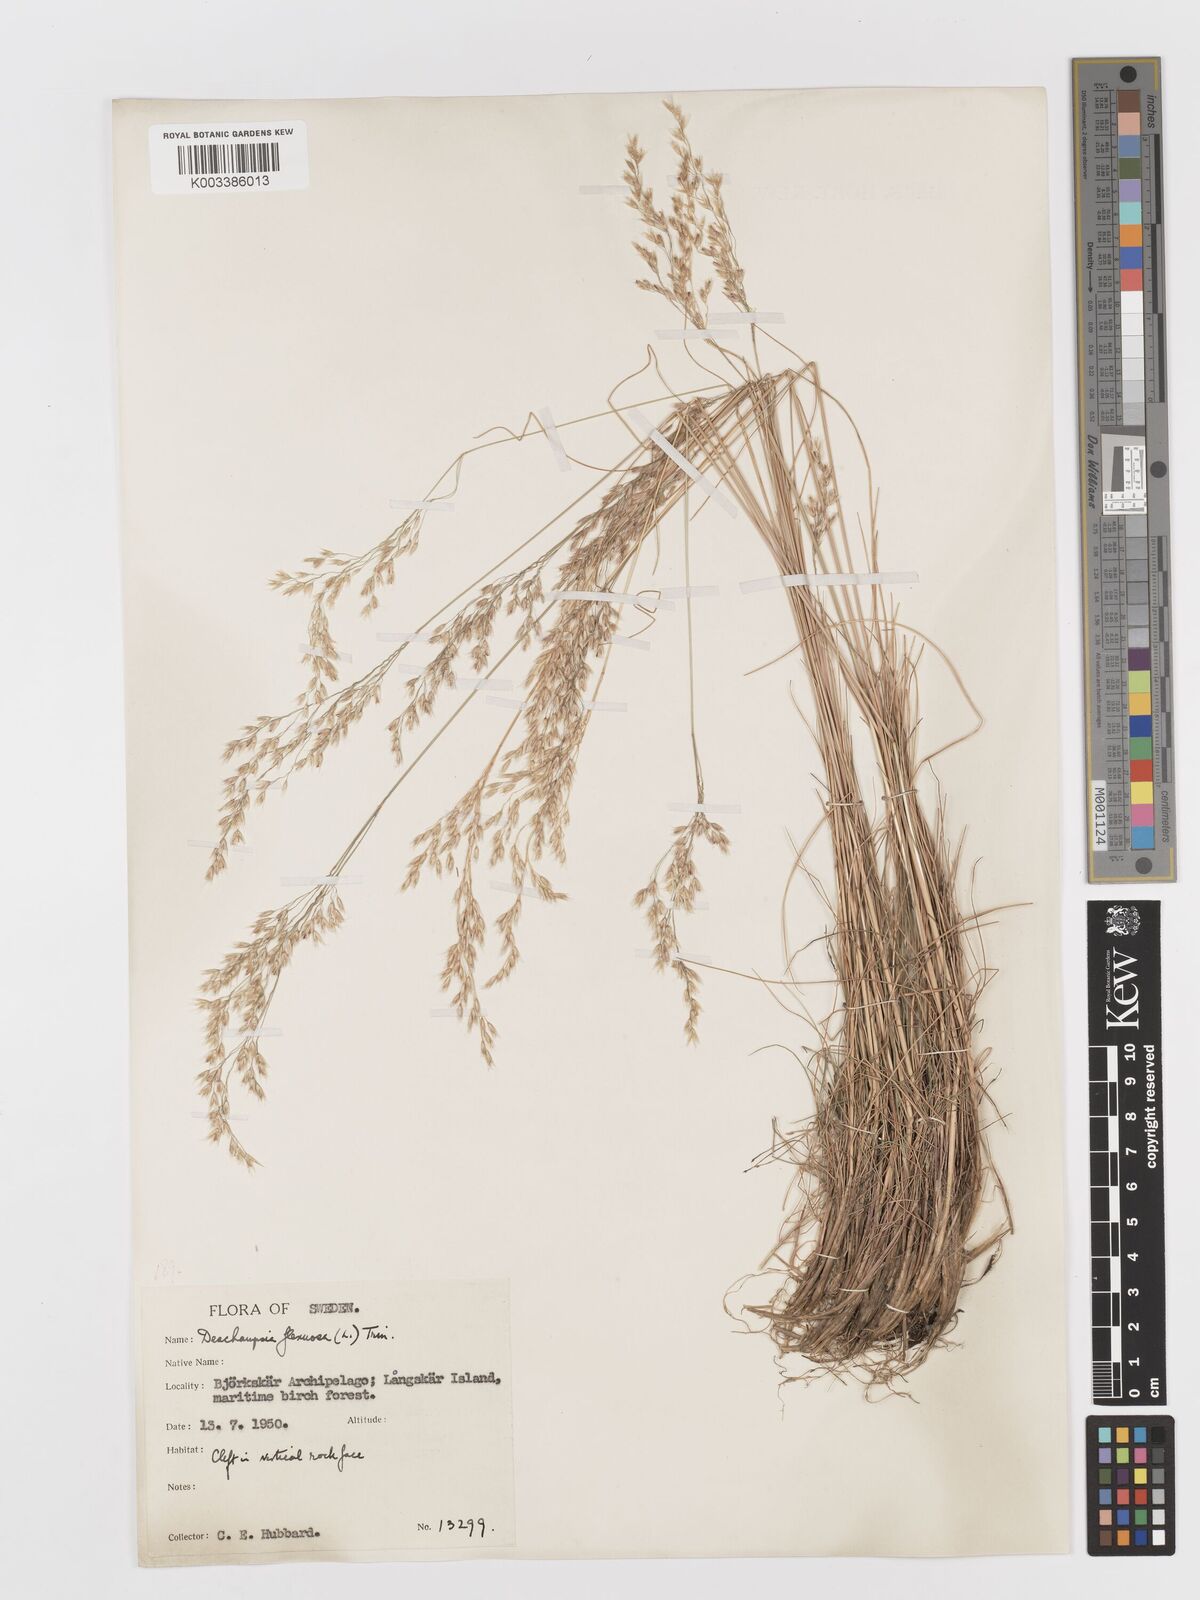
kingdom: Plantae
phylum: Tracheophyta
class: Liliopsida
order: Poales
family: Poaceae
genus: Avenella
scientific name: Avenella flexuosa
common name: Wavy hairgrass
